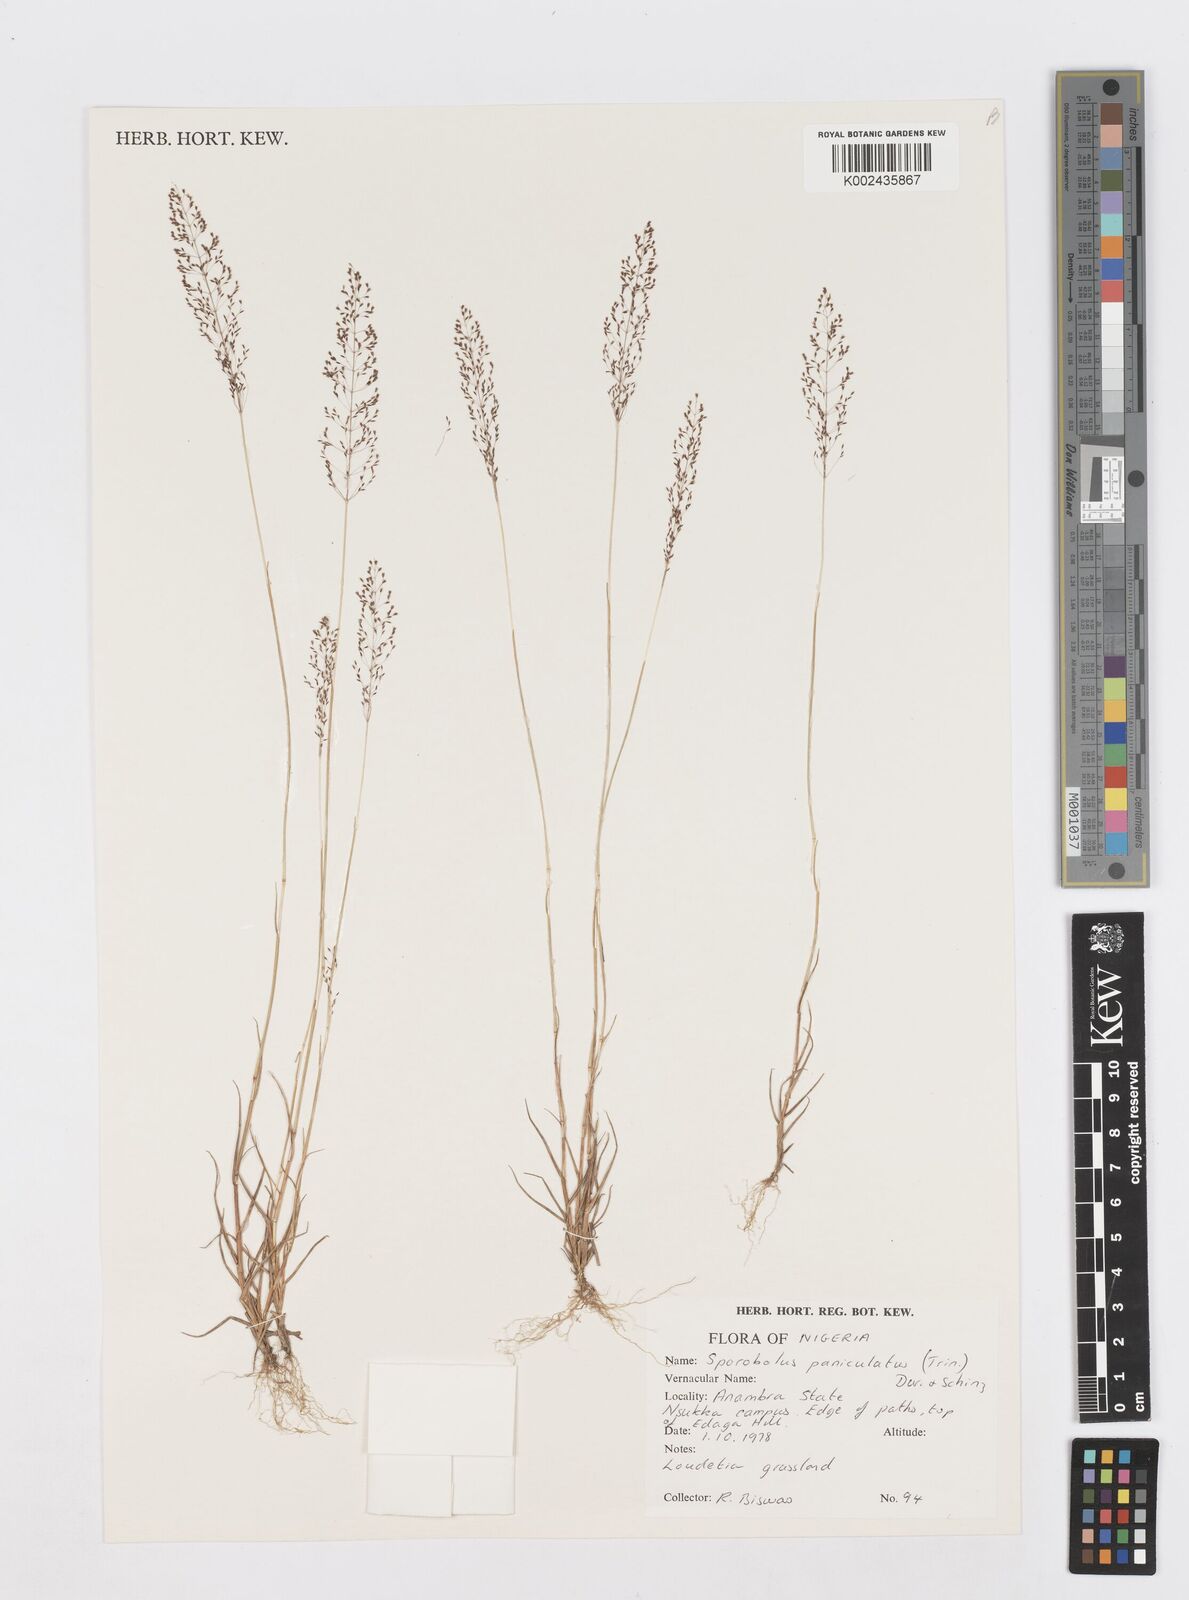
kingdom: Plantae
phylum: Tracheophyta
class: Liliopsida
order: Poales
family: Poaceae
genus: Sporobolus
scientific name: Sporobolus micranthus
